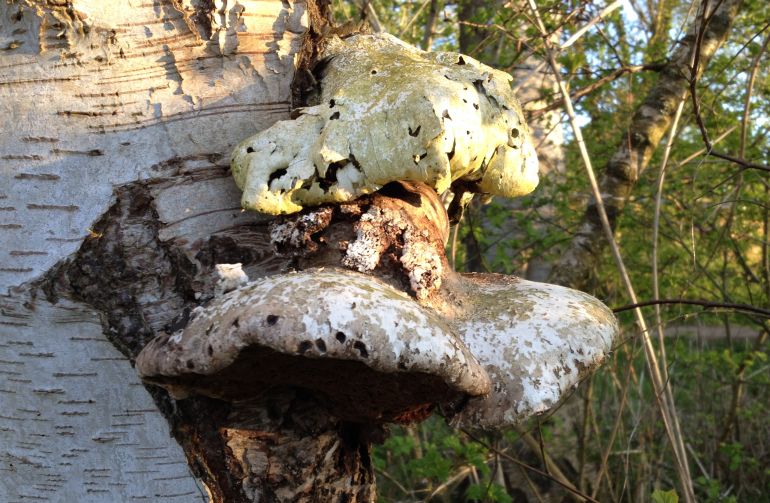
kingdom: Fungi
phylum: Basidiomycota
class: Agaricomycetes
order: Polyporales
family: Fomitopsidaceae
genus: Fomitopsis
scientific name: Fomitopsis betulina
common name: birkeporesvamp
